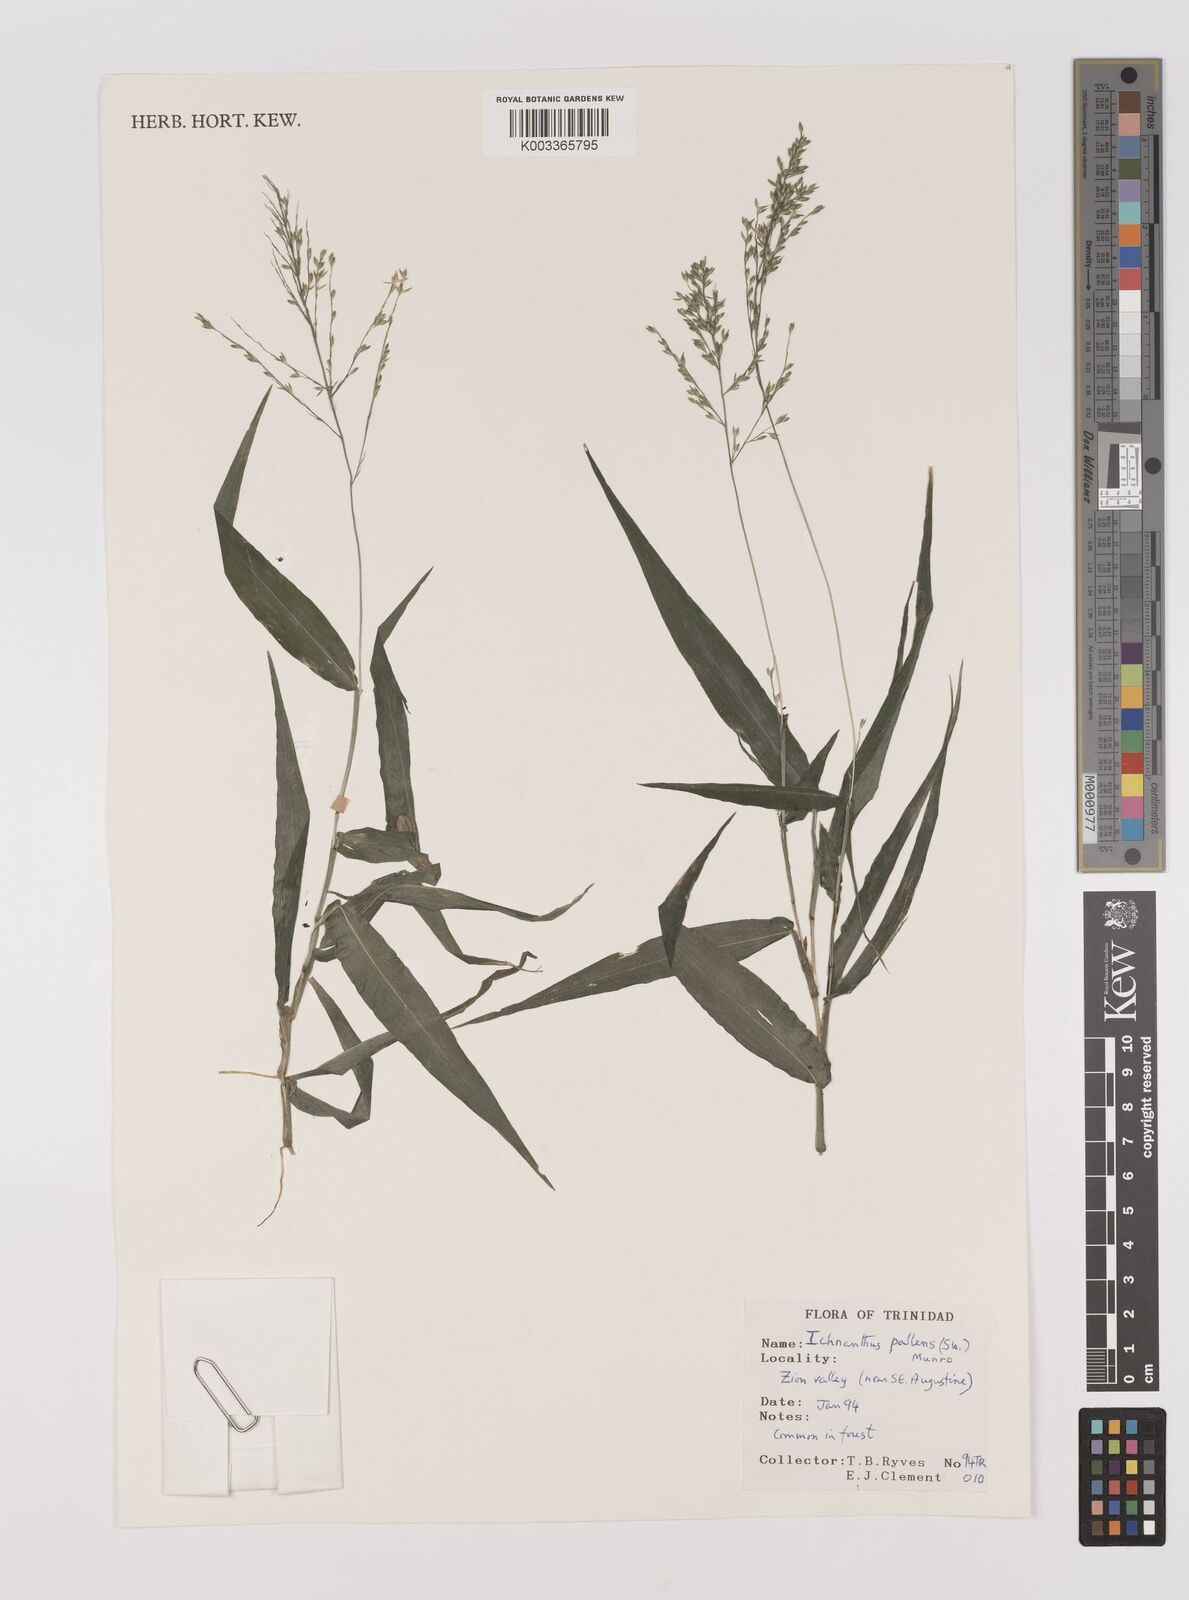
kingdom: Plantae
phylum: Tracheophyta
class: Liliopsida
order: Poales
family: Poaceae
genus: Ichnanthus
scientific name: Ichnanthus pallens
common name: Water grass
